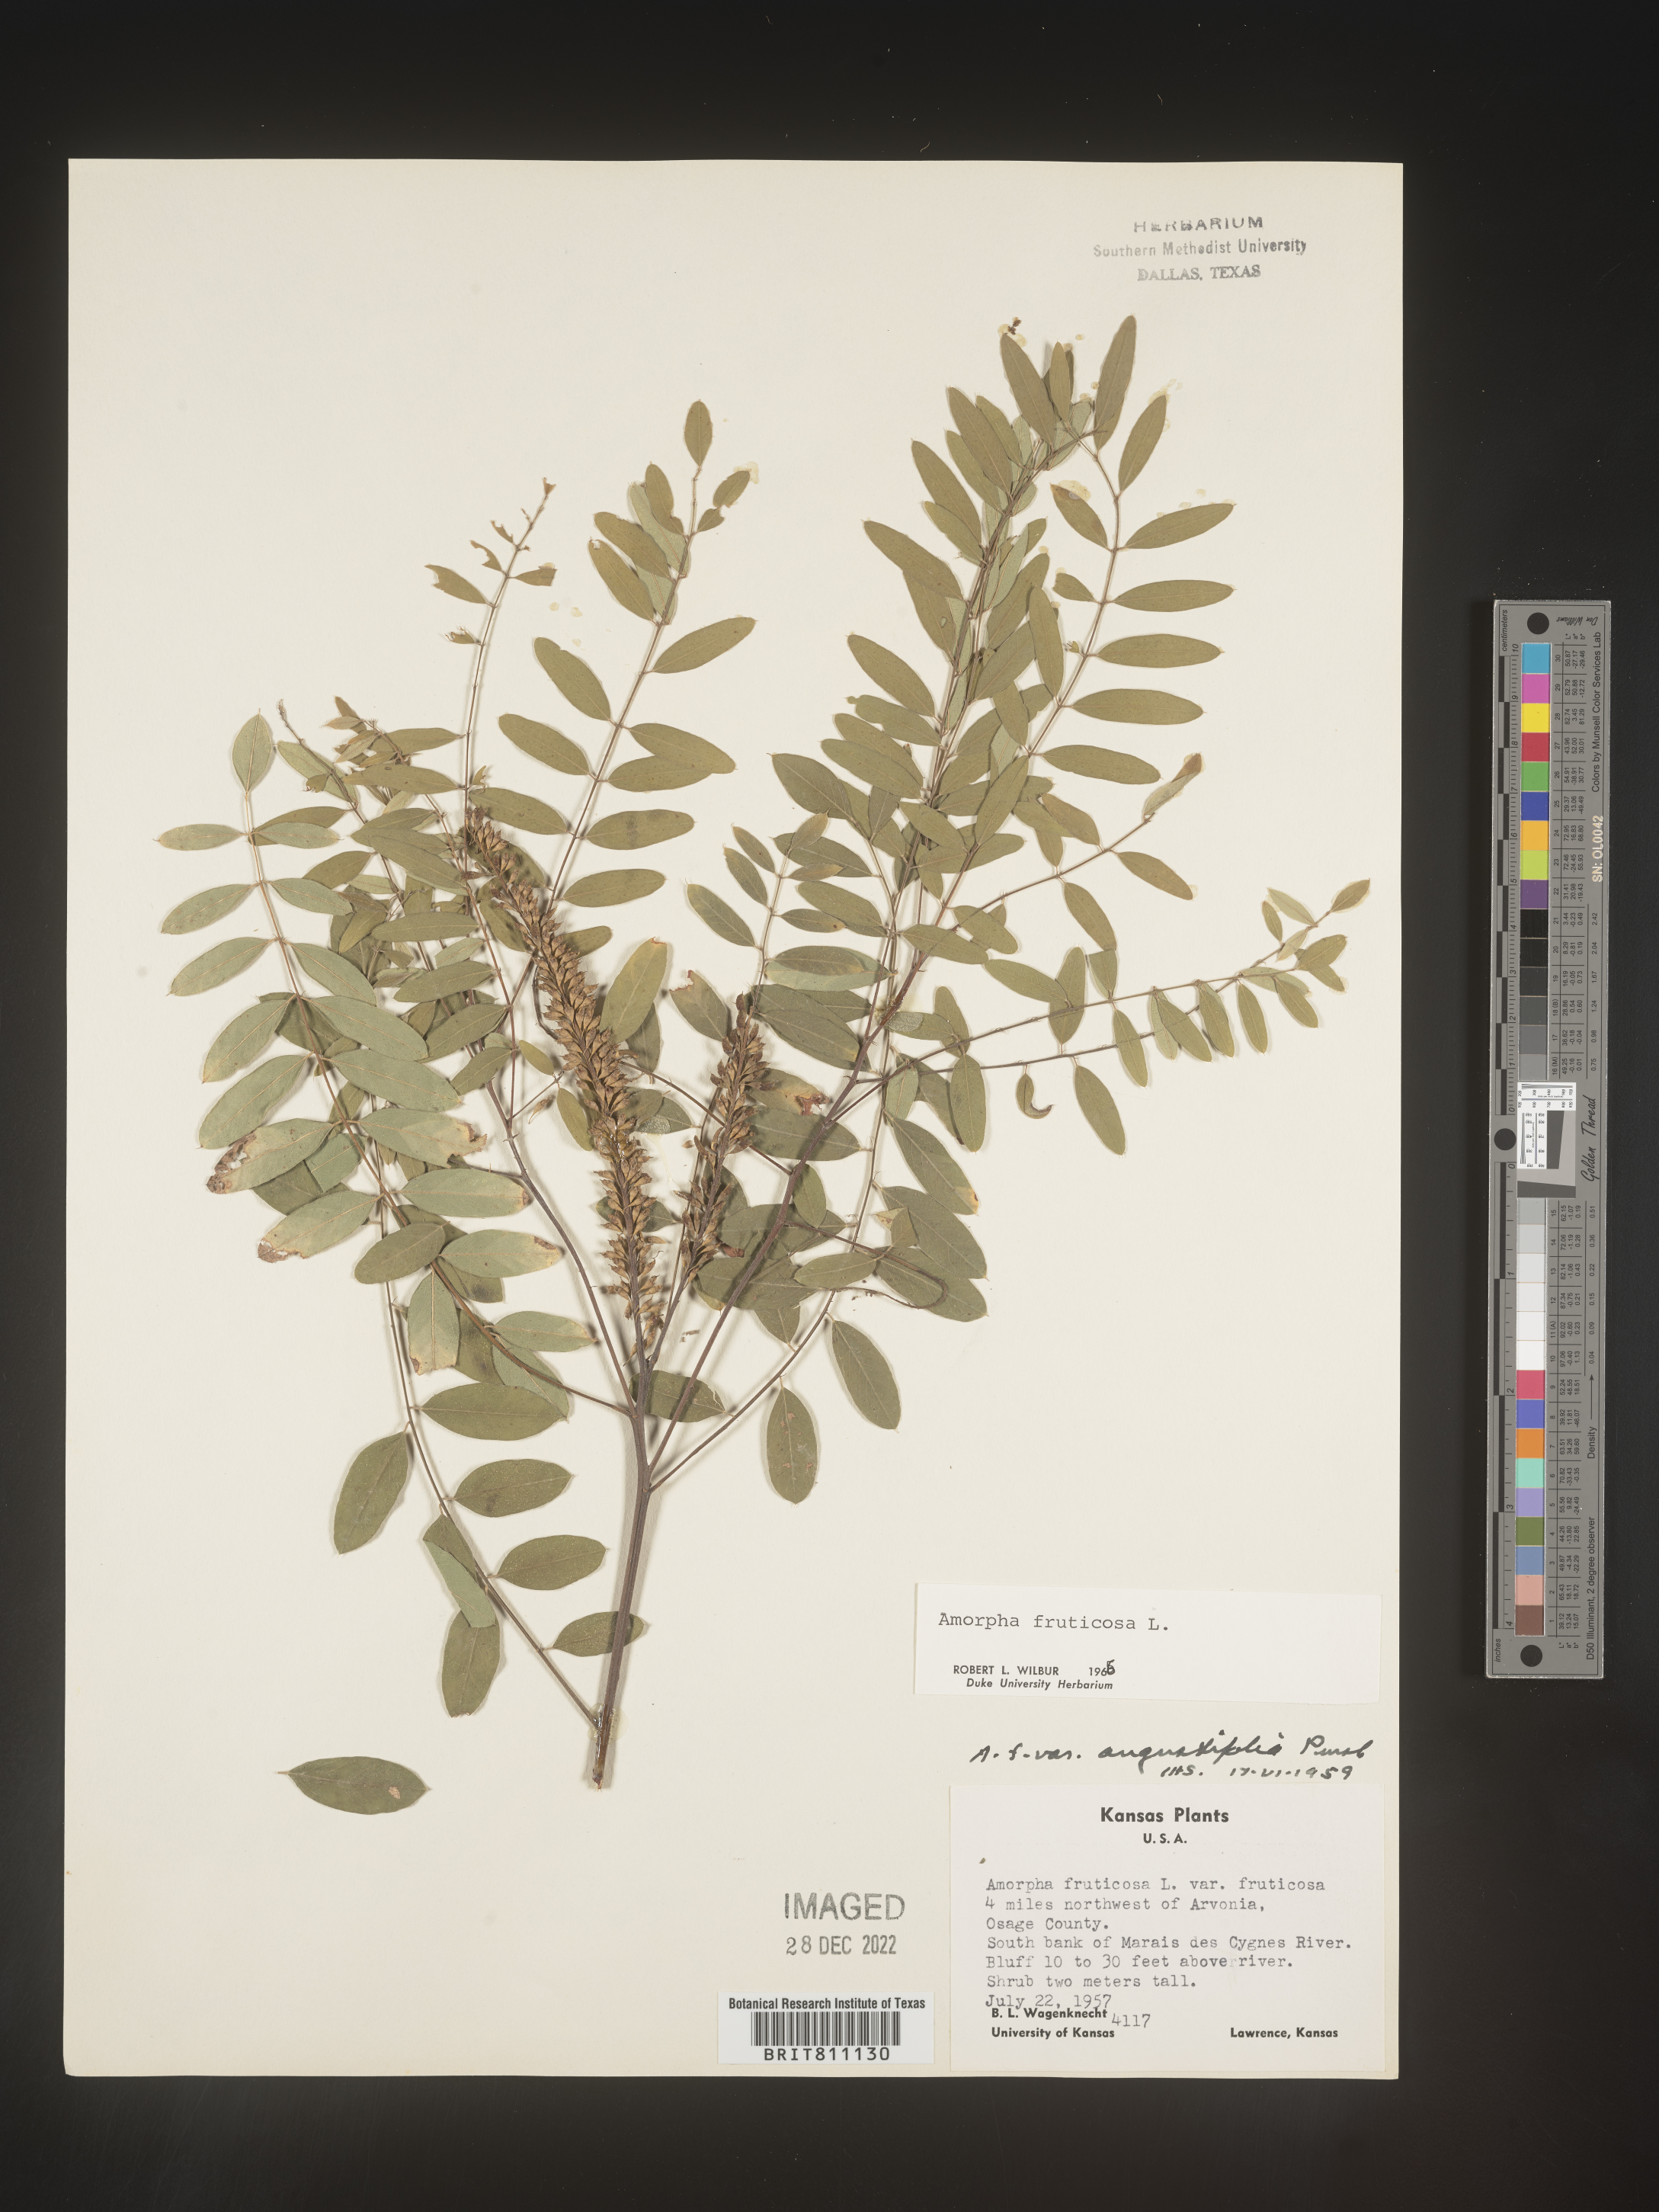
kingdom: Plantae
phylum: Tracheophyta
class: Magnoliopsida
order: Fabales
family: Fabaceae
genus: Amorpha
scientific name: Amorpha fruticosa
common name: False indigo
